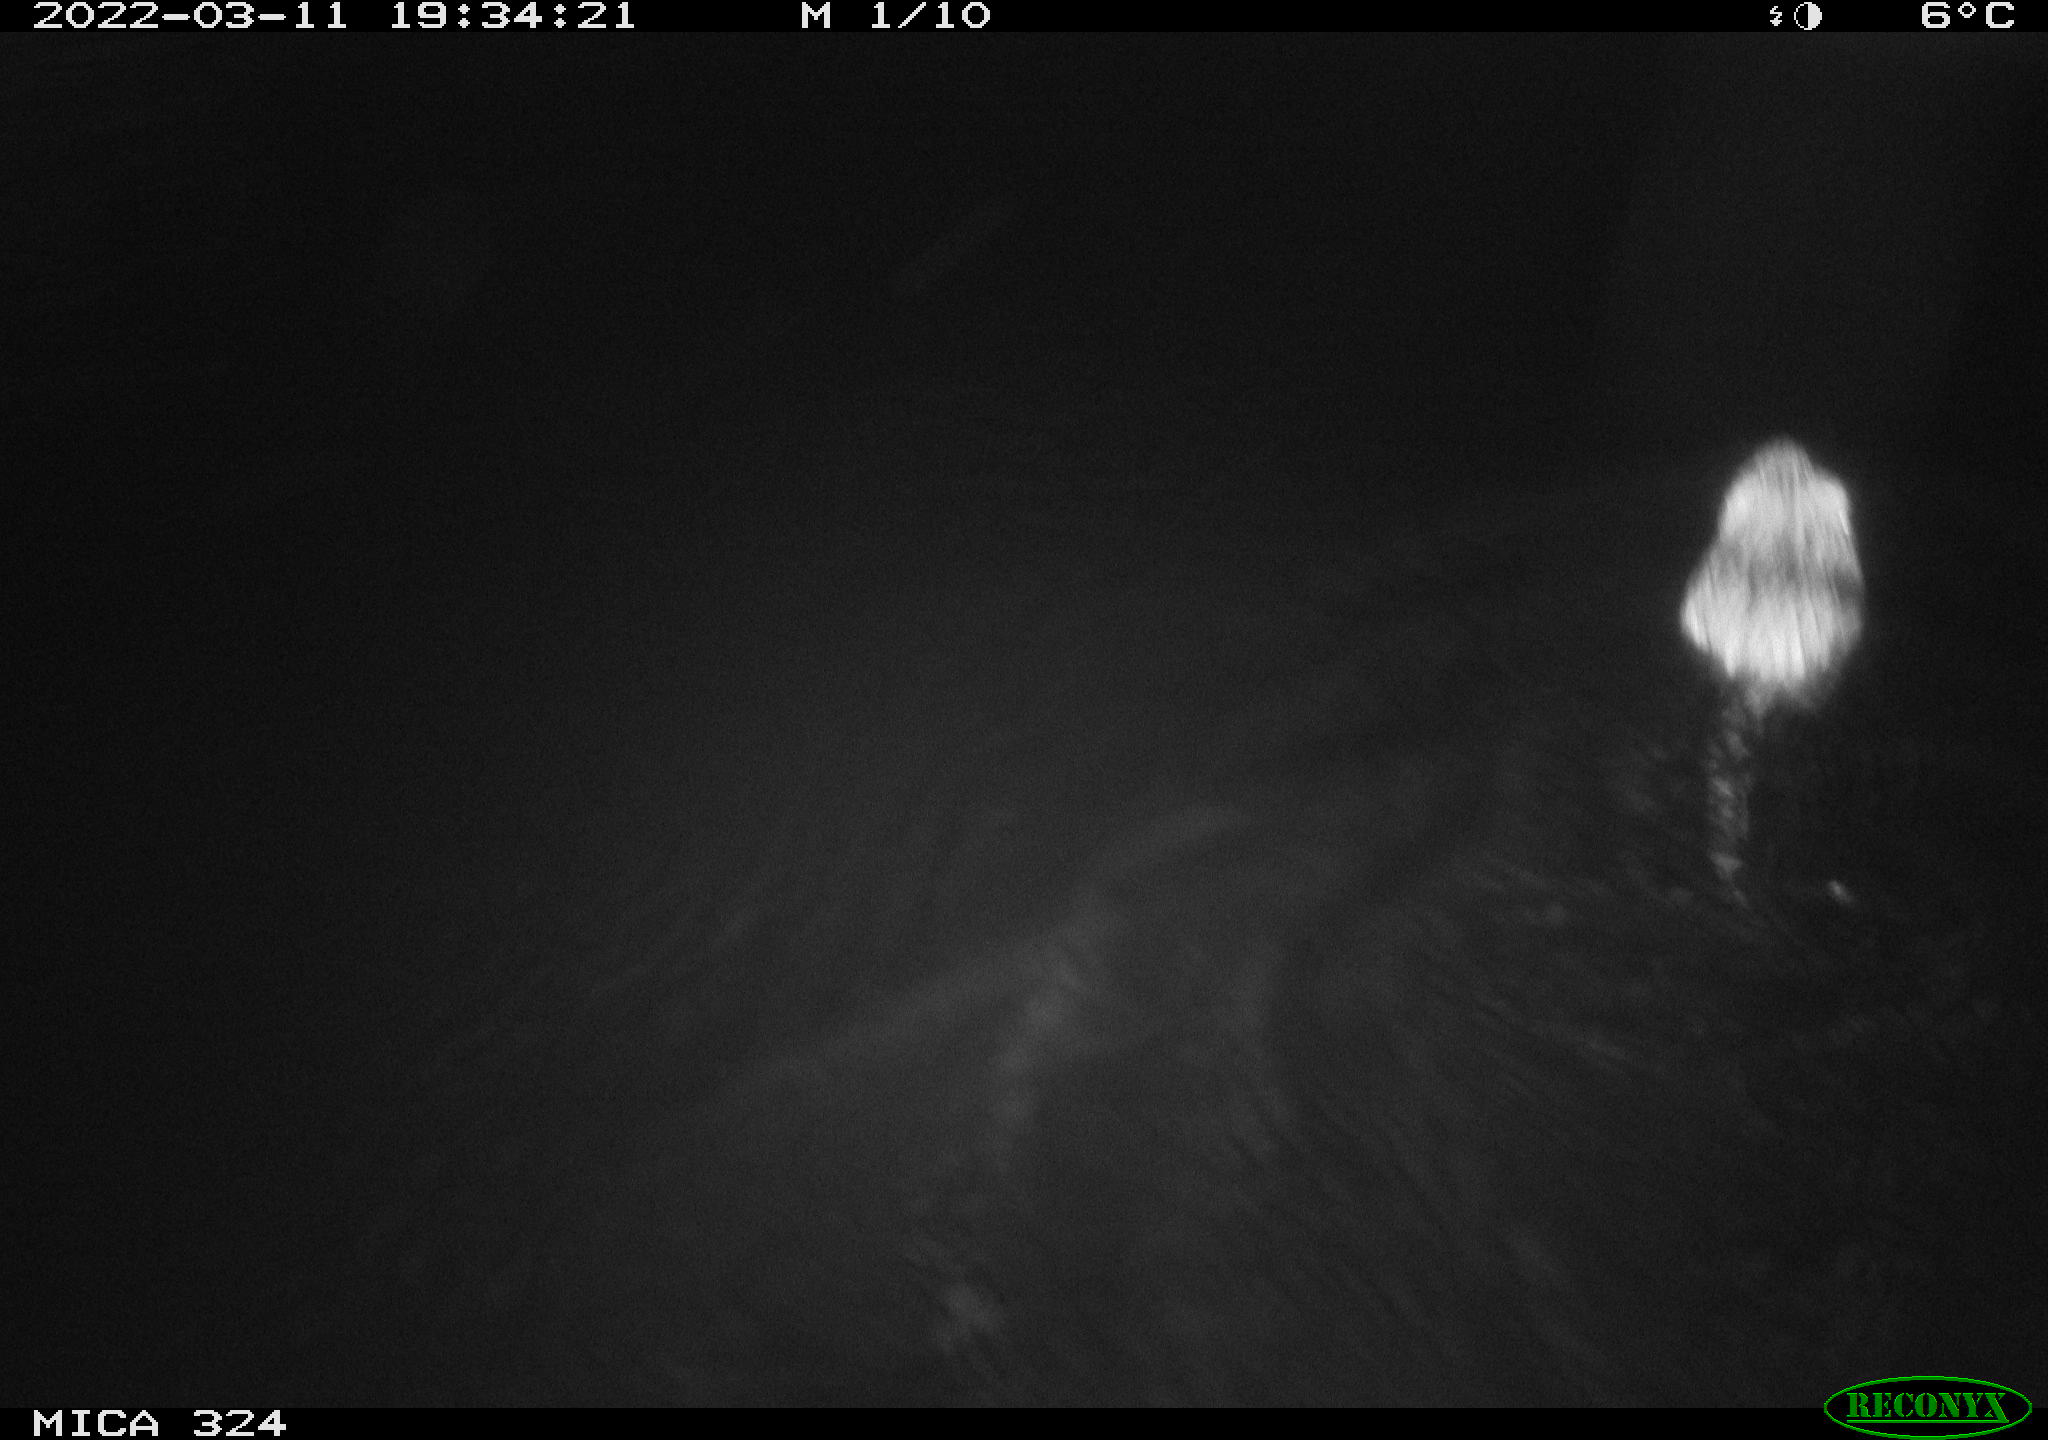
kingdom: Animalia
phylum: Chordata
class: Mammalia
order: Rodentia
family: Cricetidae
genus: Ondatra
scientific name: Ondatra zibethicus
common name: Muskrat
